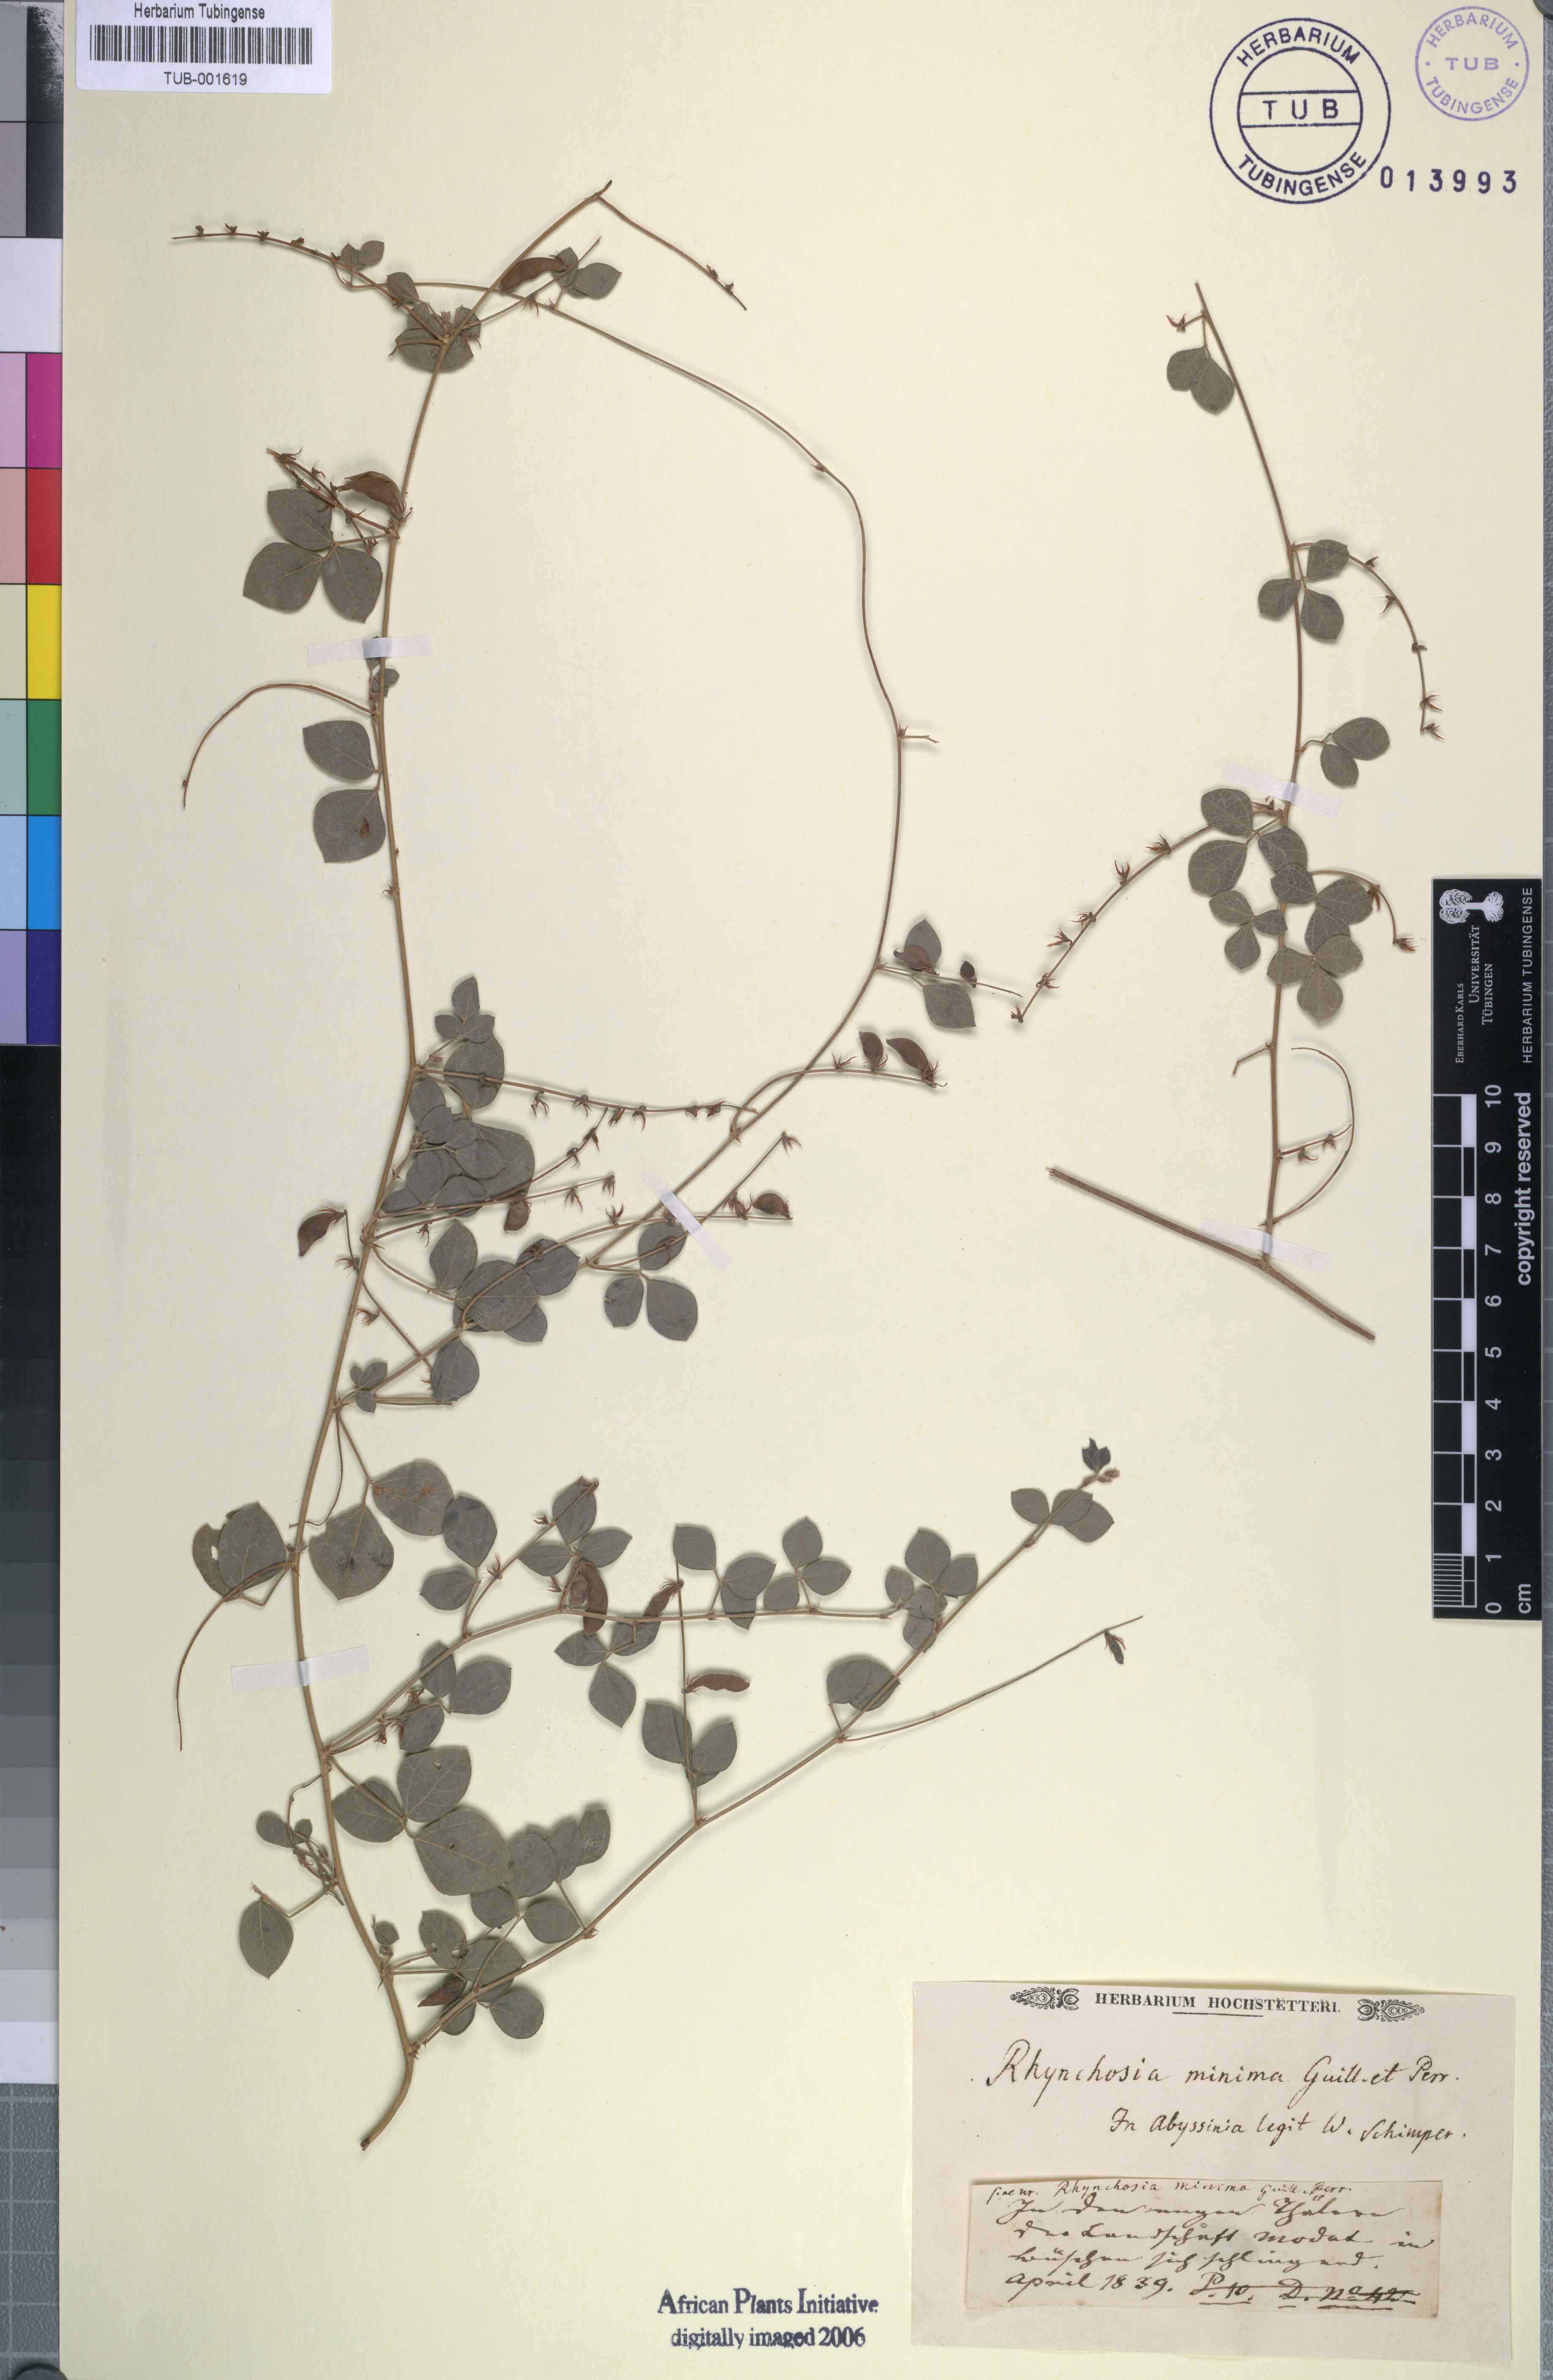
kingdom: Plantae
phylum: Tracheophyta
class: Magnoliopsida
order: Fabales
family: Fabaceae
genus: Rhynchosia
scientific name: Rhynchosia minima
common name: Least snoutbean
